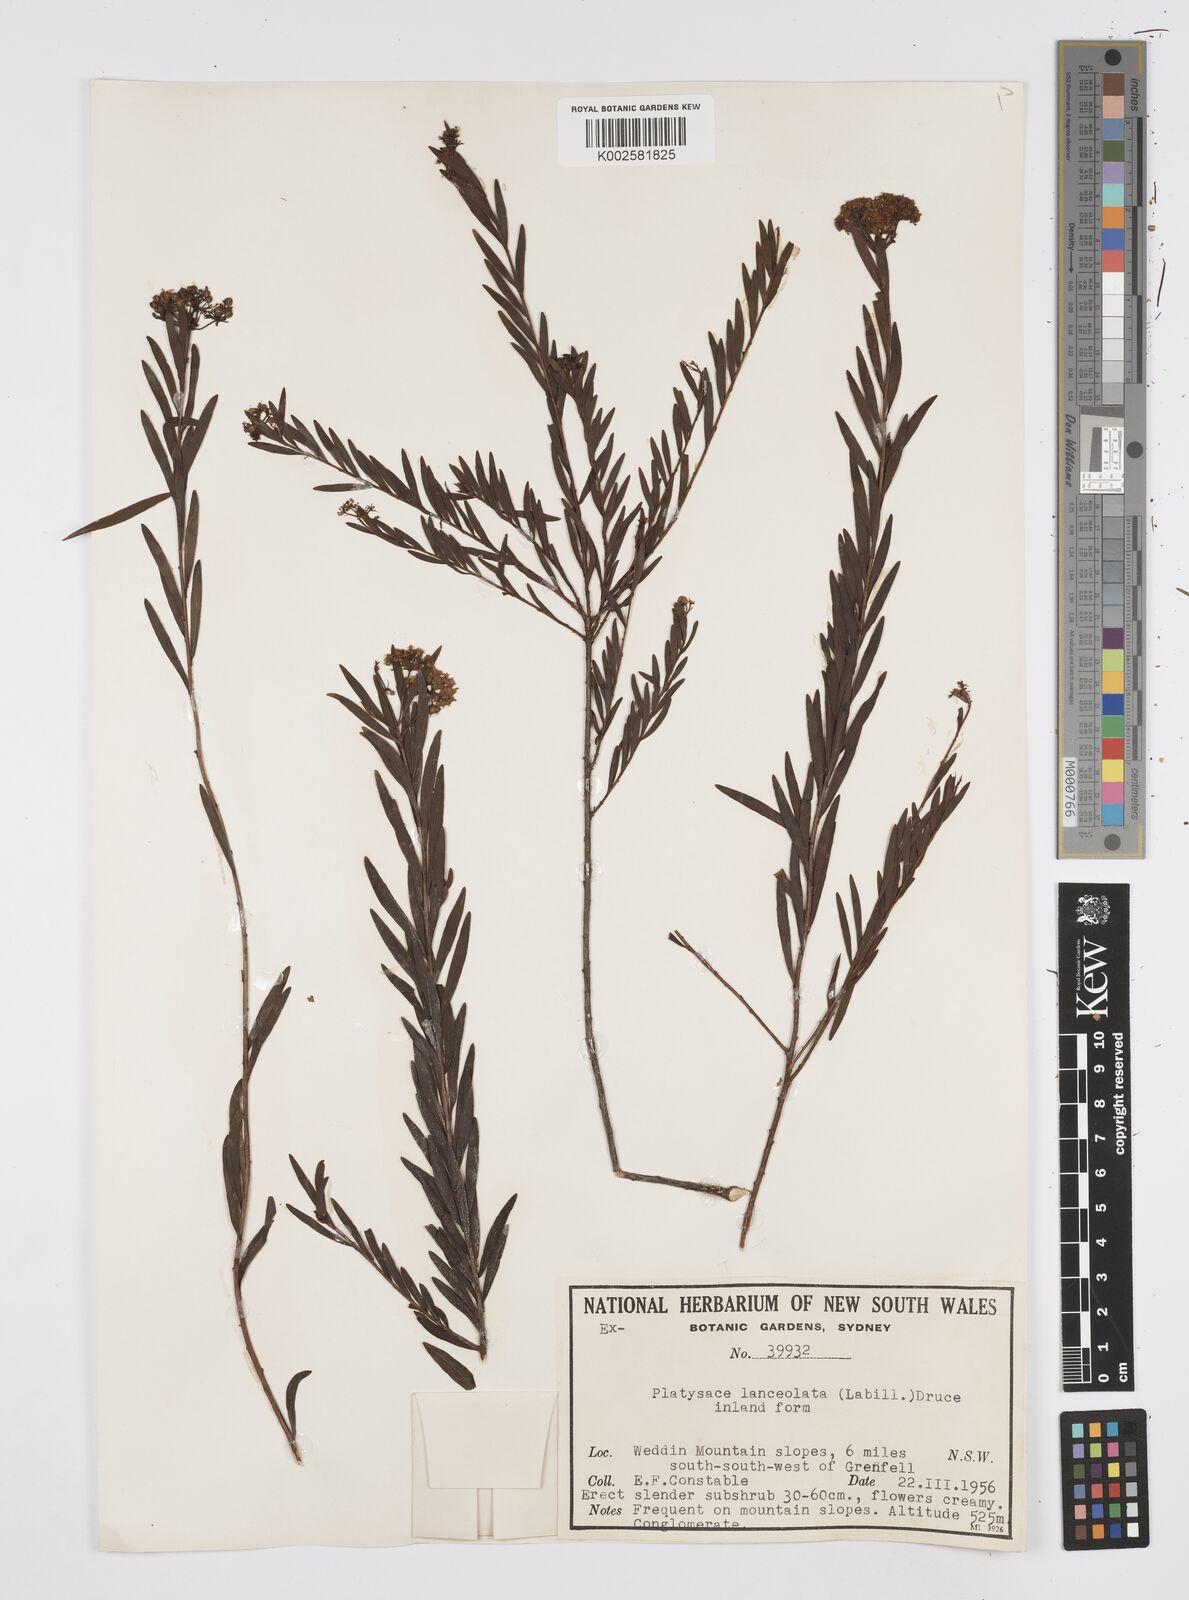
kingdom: Plantae
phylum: Tracheophyta
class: Magnoliopsida
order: Apiales
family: Apiaceae
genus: Platysace
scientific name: Platysace lanceolata
